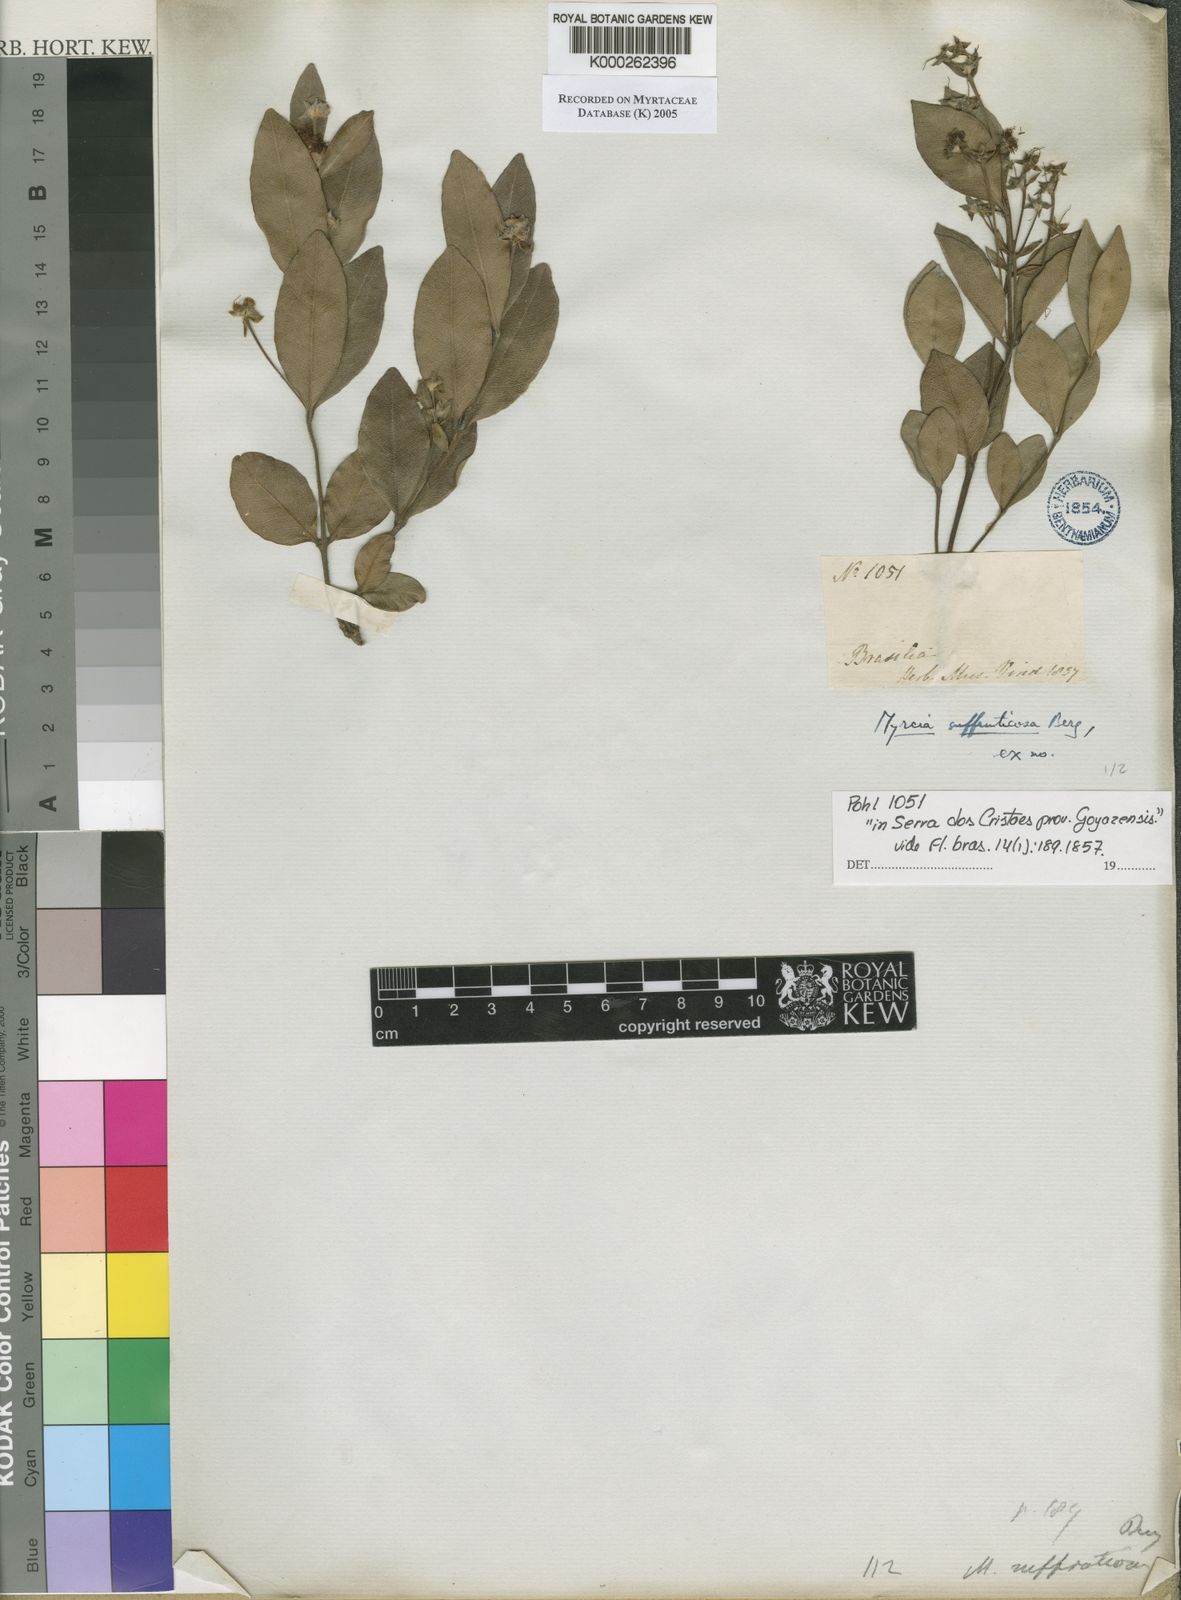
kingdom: Plantae
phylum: Tracheophyta
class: Magnoliopsida
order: Myrtales
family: Myrtaceae
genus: Myrcia
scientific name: Myrcia suffruticosa
